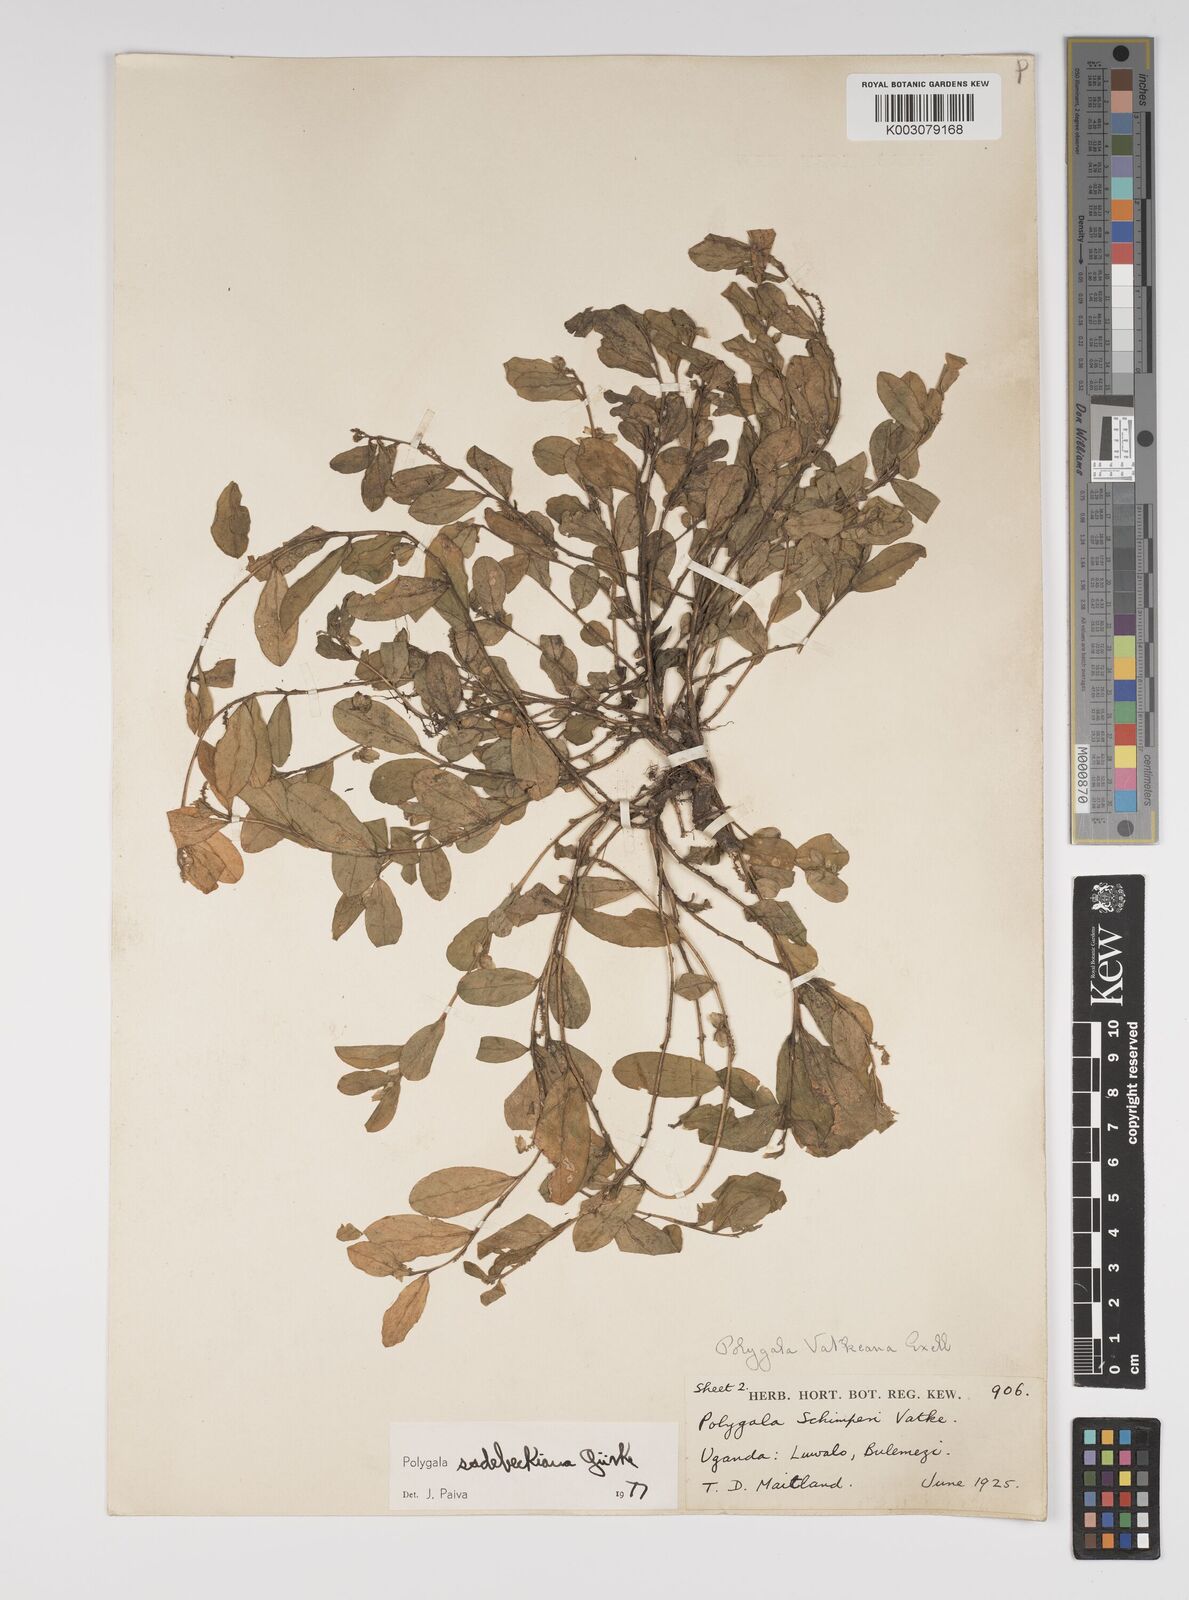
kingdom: Plantae
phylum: Tracheophyta
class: Magnoliopsida
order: Fabales
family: Polygalaceae
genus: Polygala
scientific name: Polygala sadebeckiana
